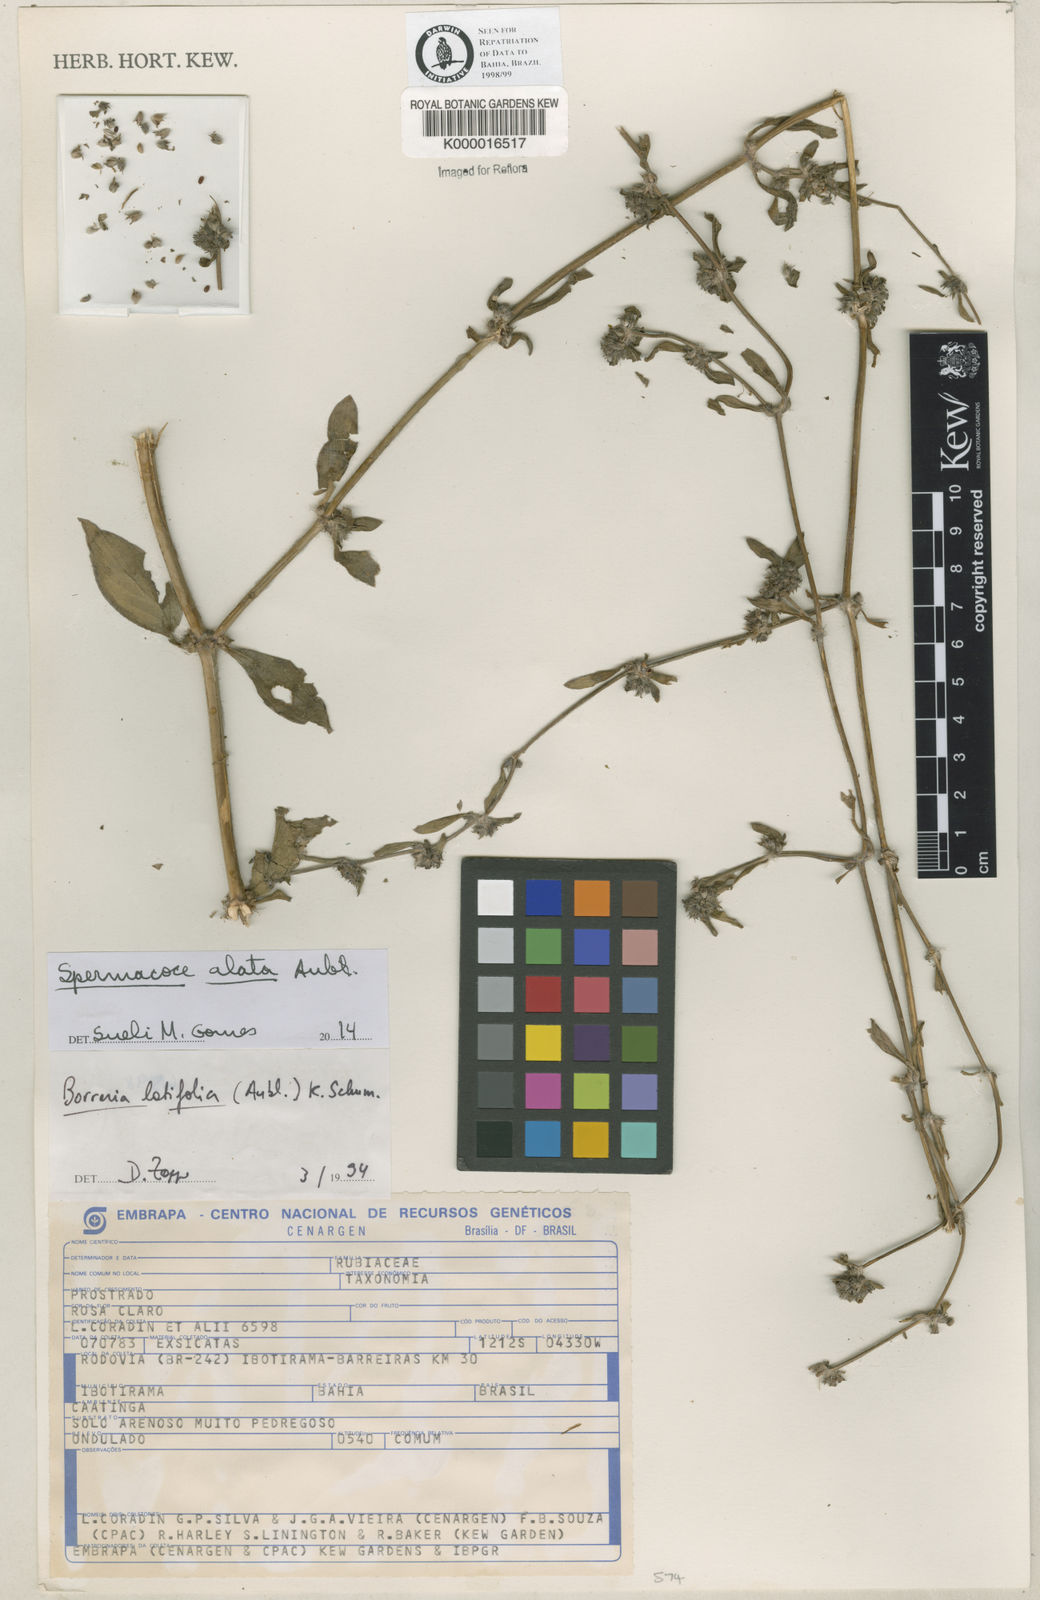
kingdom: Plantae
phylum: Tracheophyta
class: Magnoliopsida
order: Gentianales
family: Rubiaceae
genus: Spermacoce
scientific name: Spermacoce latifolia
